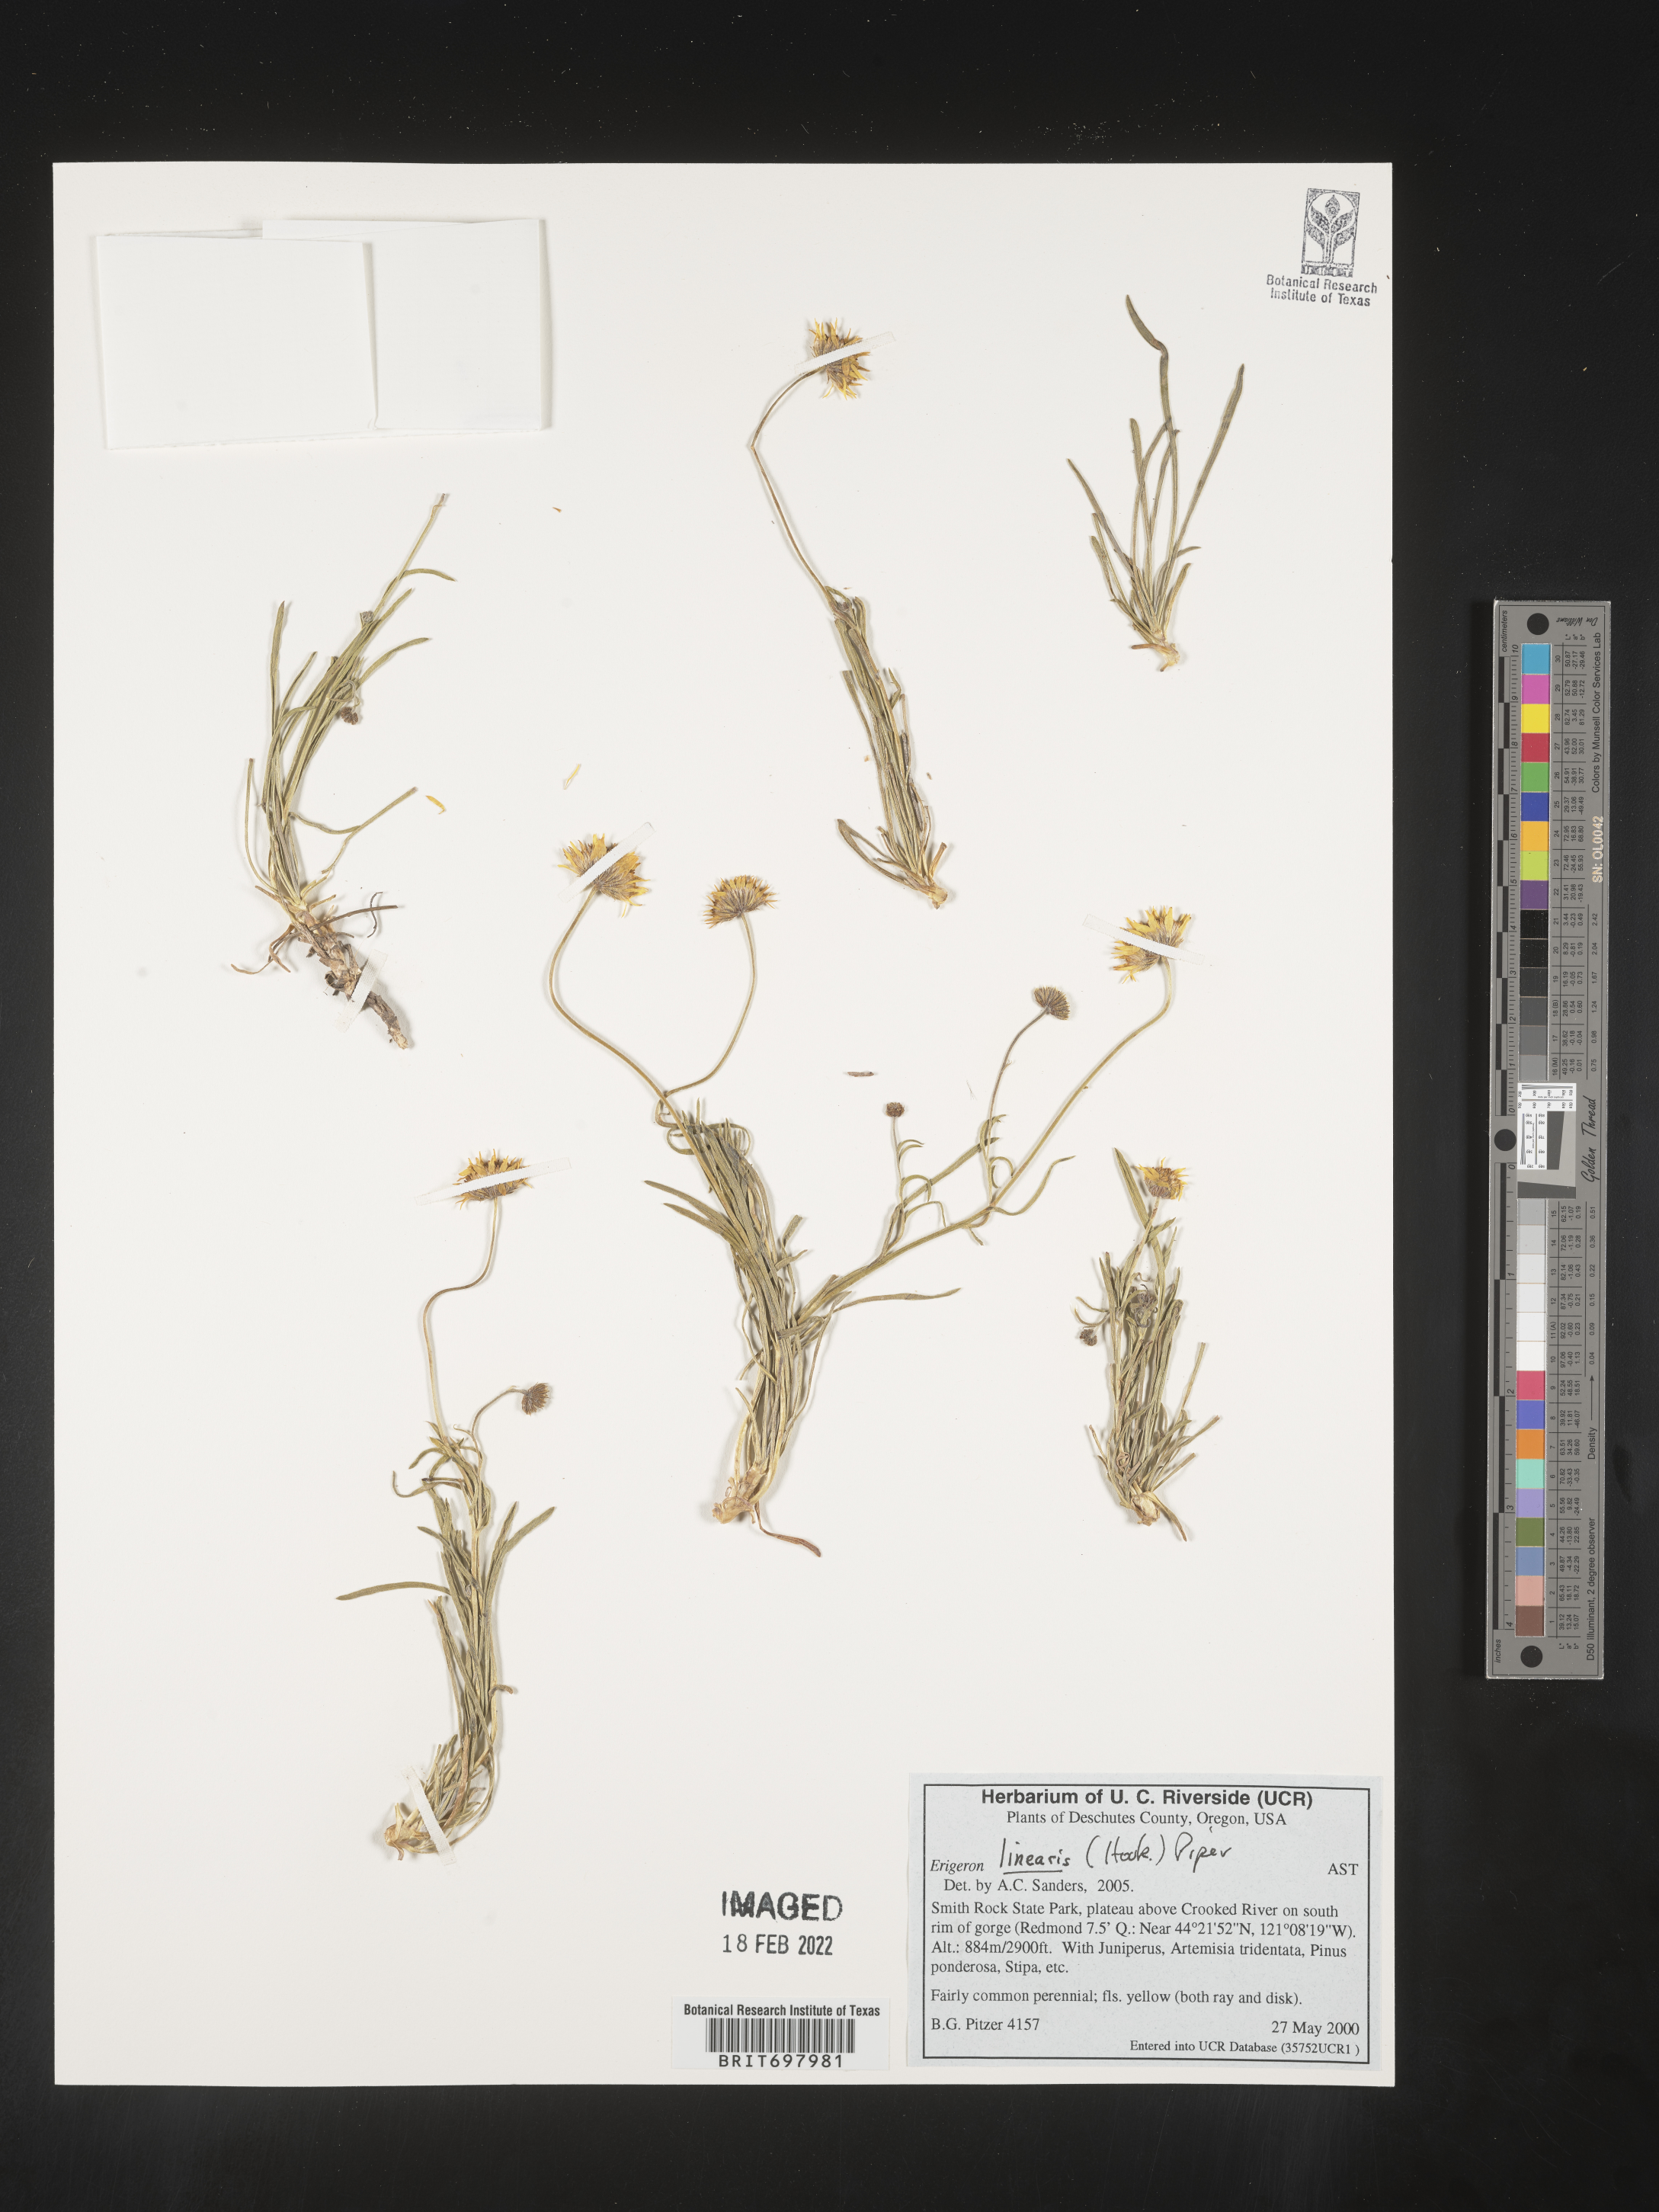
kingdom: Plantae
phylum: Tracheophyta
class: Magnoliopsida
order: Asterales
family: Asteraceae
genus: Erigeron
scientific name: Erigeron linearis
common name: Desert yellow fleabane
